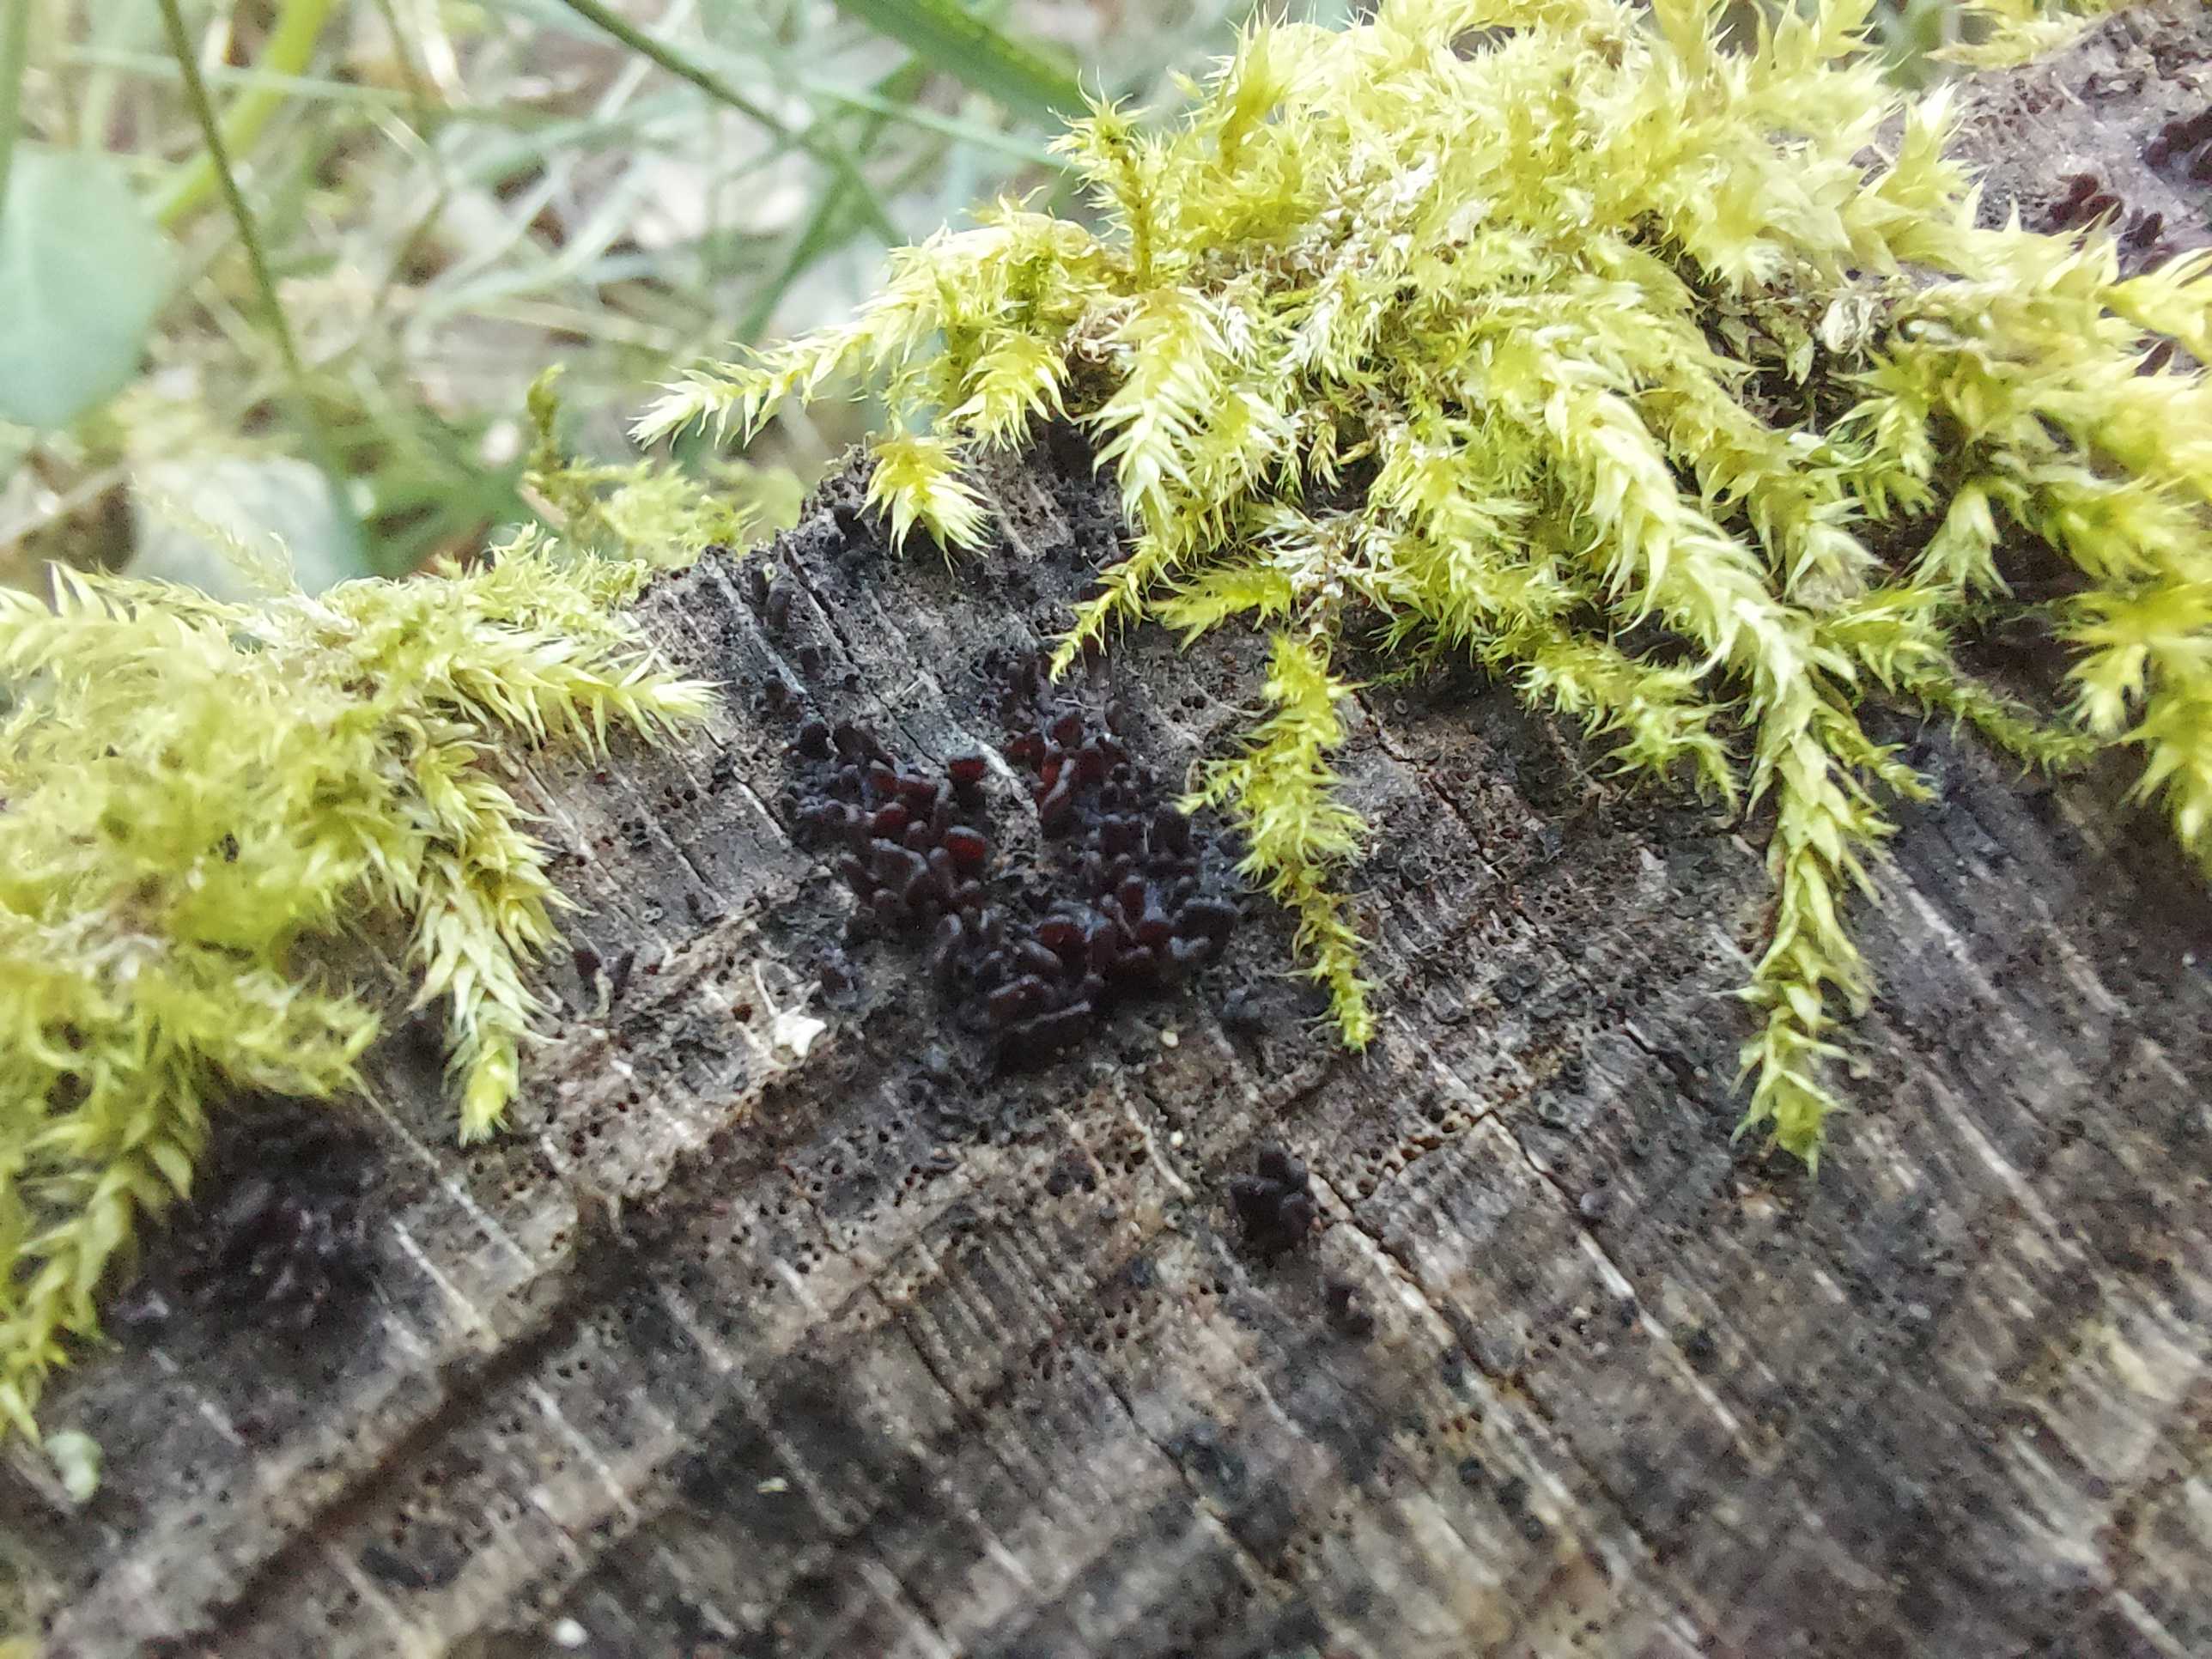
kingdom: Fungi
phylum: Ascomycota
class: Leotiomycetes
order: Helotiales
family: Gelatinodiscaceae
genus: Ascocoryne
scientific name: Ascocoryne sarcoides
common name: rødlilla sejskive
